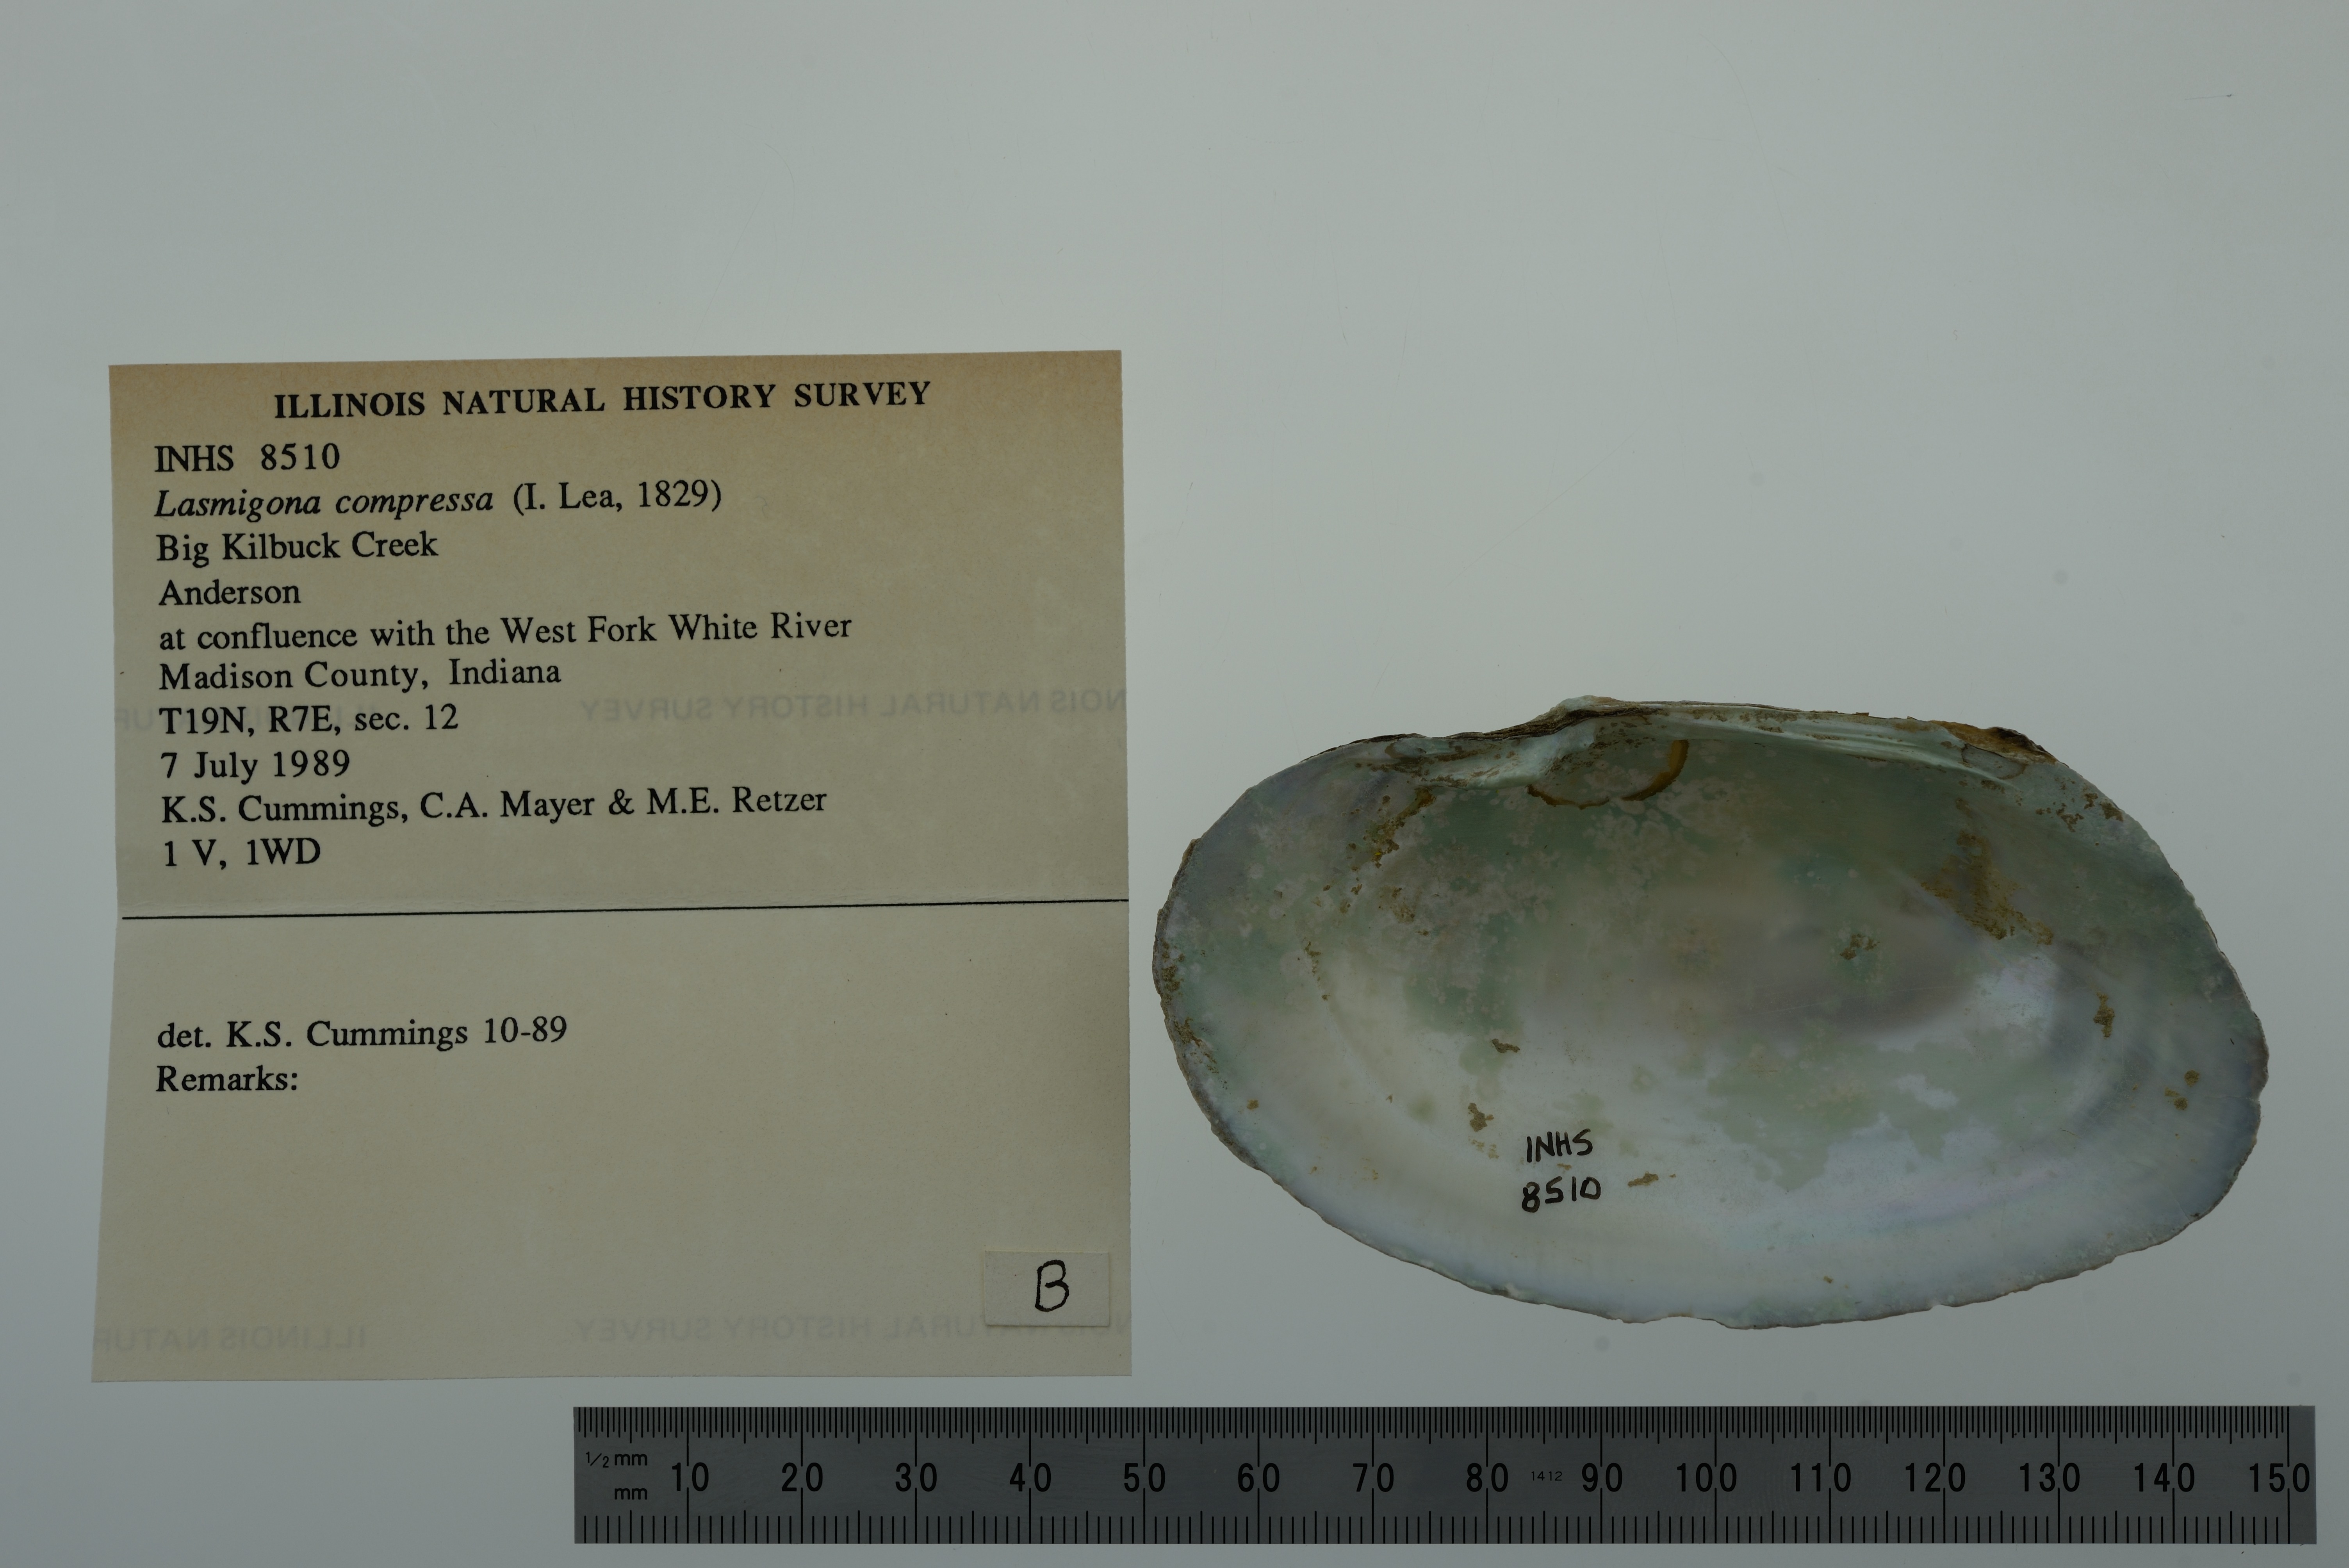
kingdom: Animalia
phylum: Mollusca
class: Bivalvia
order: Unionida
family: Unionidae
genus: Lasmigona
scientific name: Lasmigona compressa
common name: Creek heelsplitter
